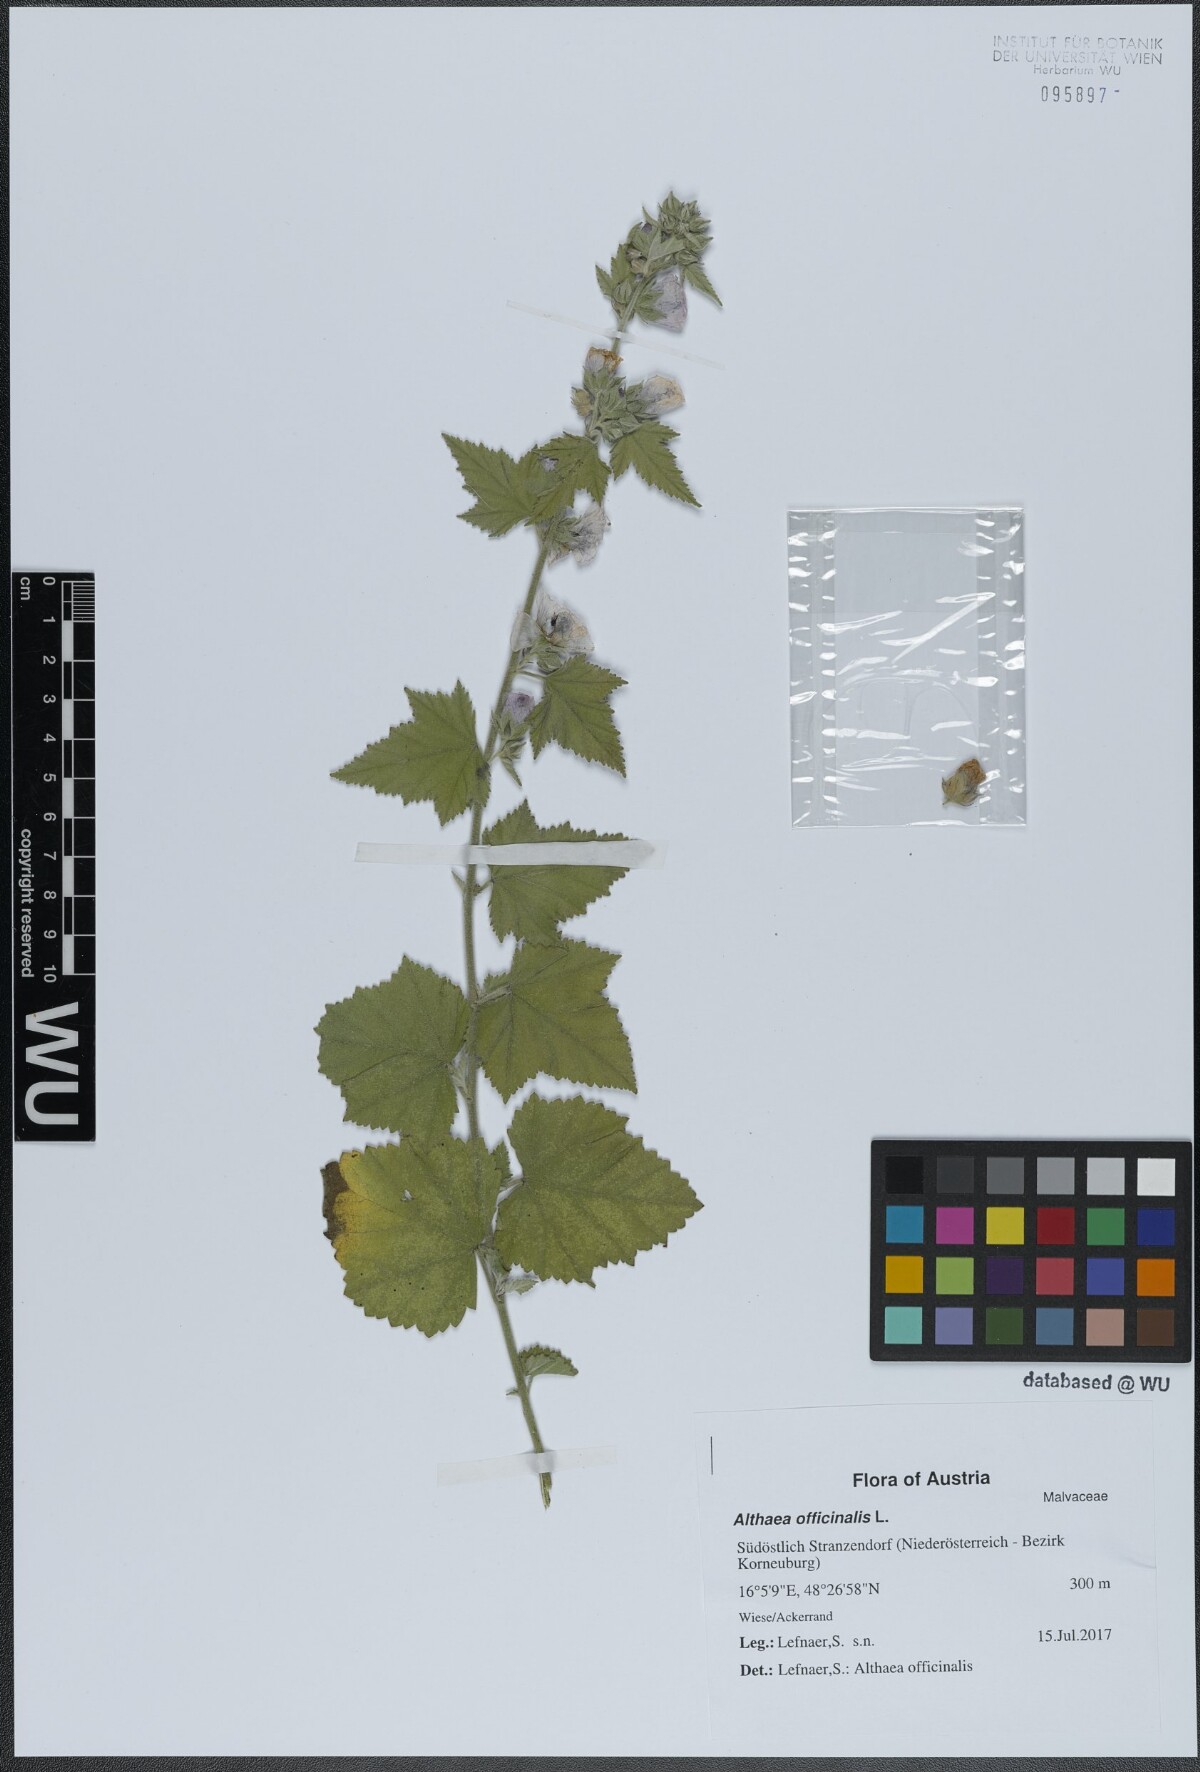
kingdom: Plantae
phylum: Tracheophyta
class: Magnoliopsida
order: Malvales
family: Malvaceae
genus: Althaea
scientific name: Althaea taurinensis
